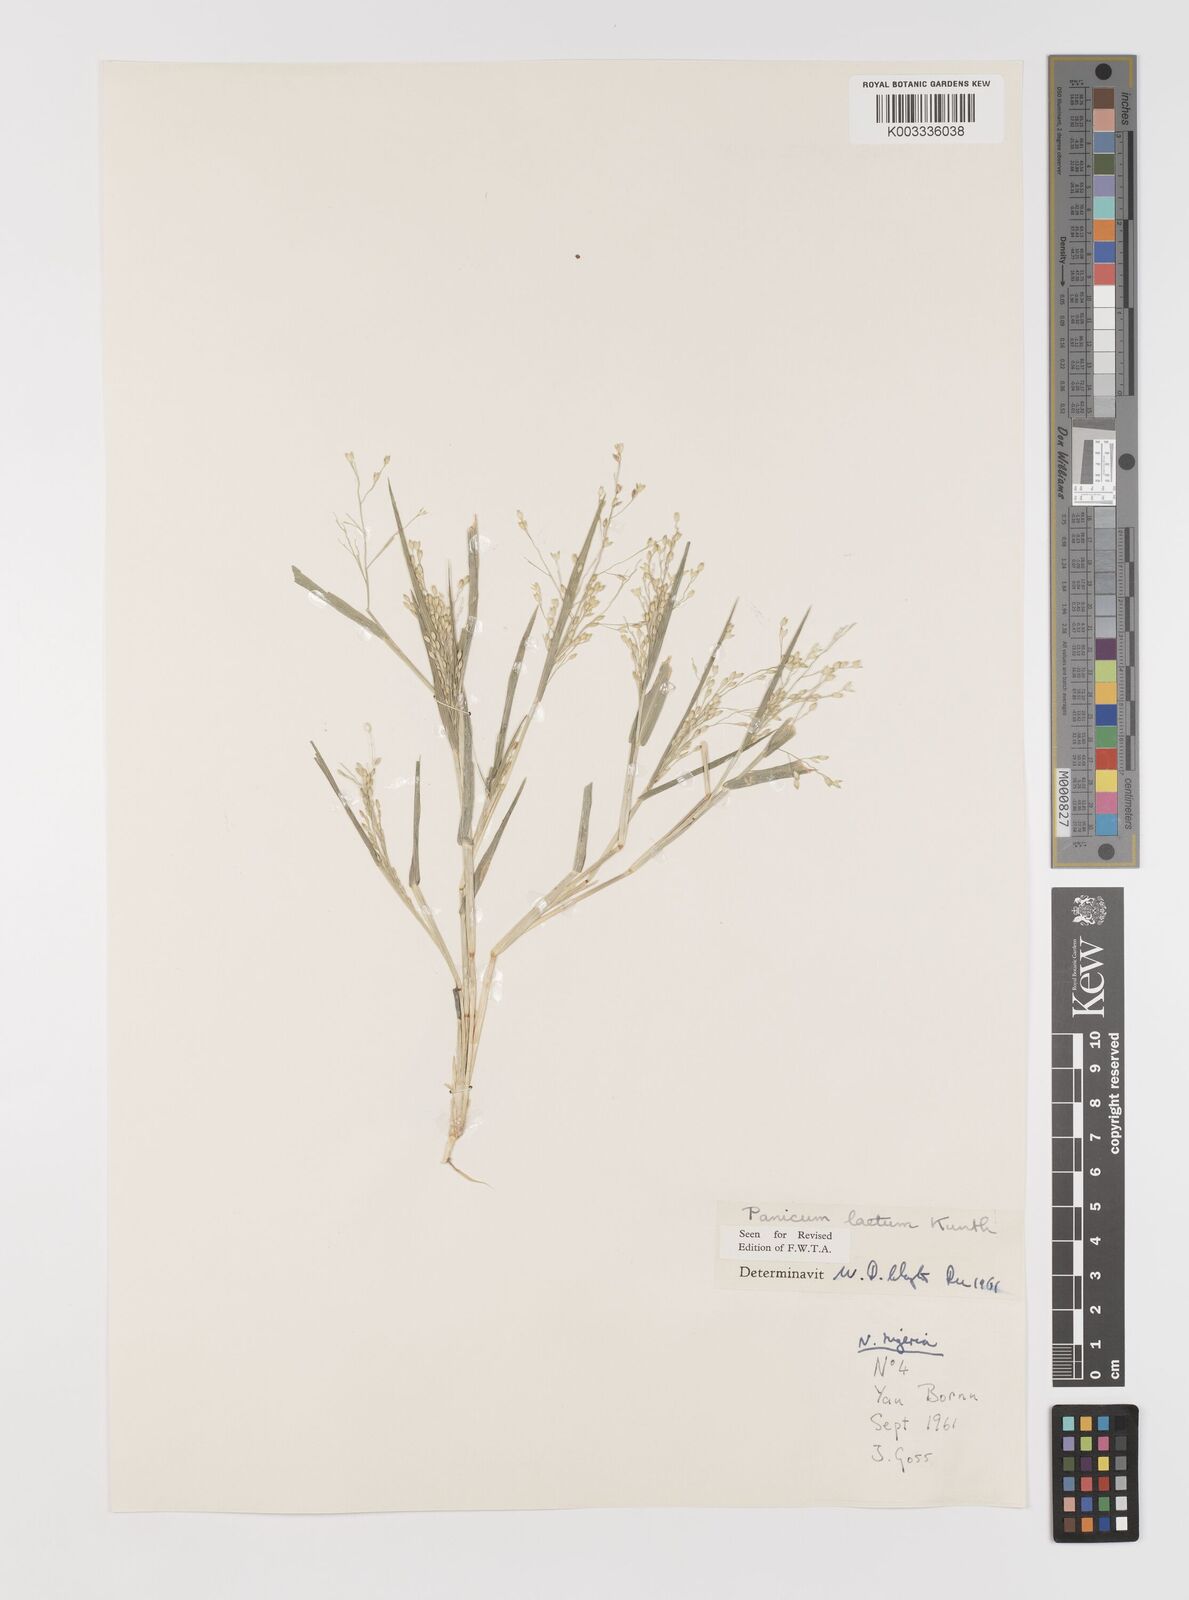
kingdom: Plantae
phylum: Tracheophyta
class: Liliopsida
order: Poales
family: Poaceae
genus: Panicum
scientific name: Panicum laetum
